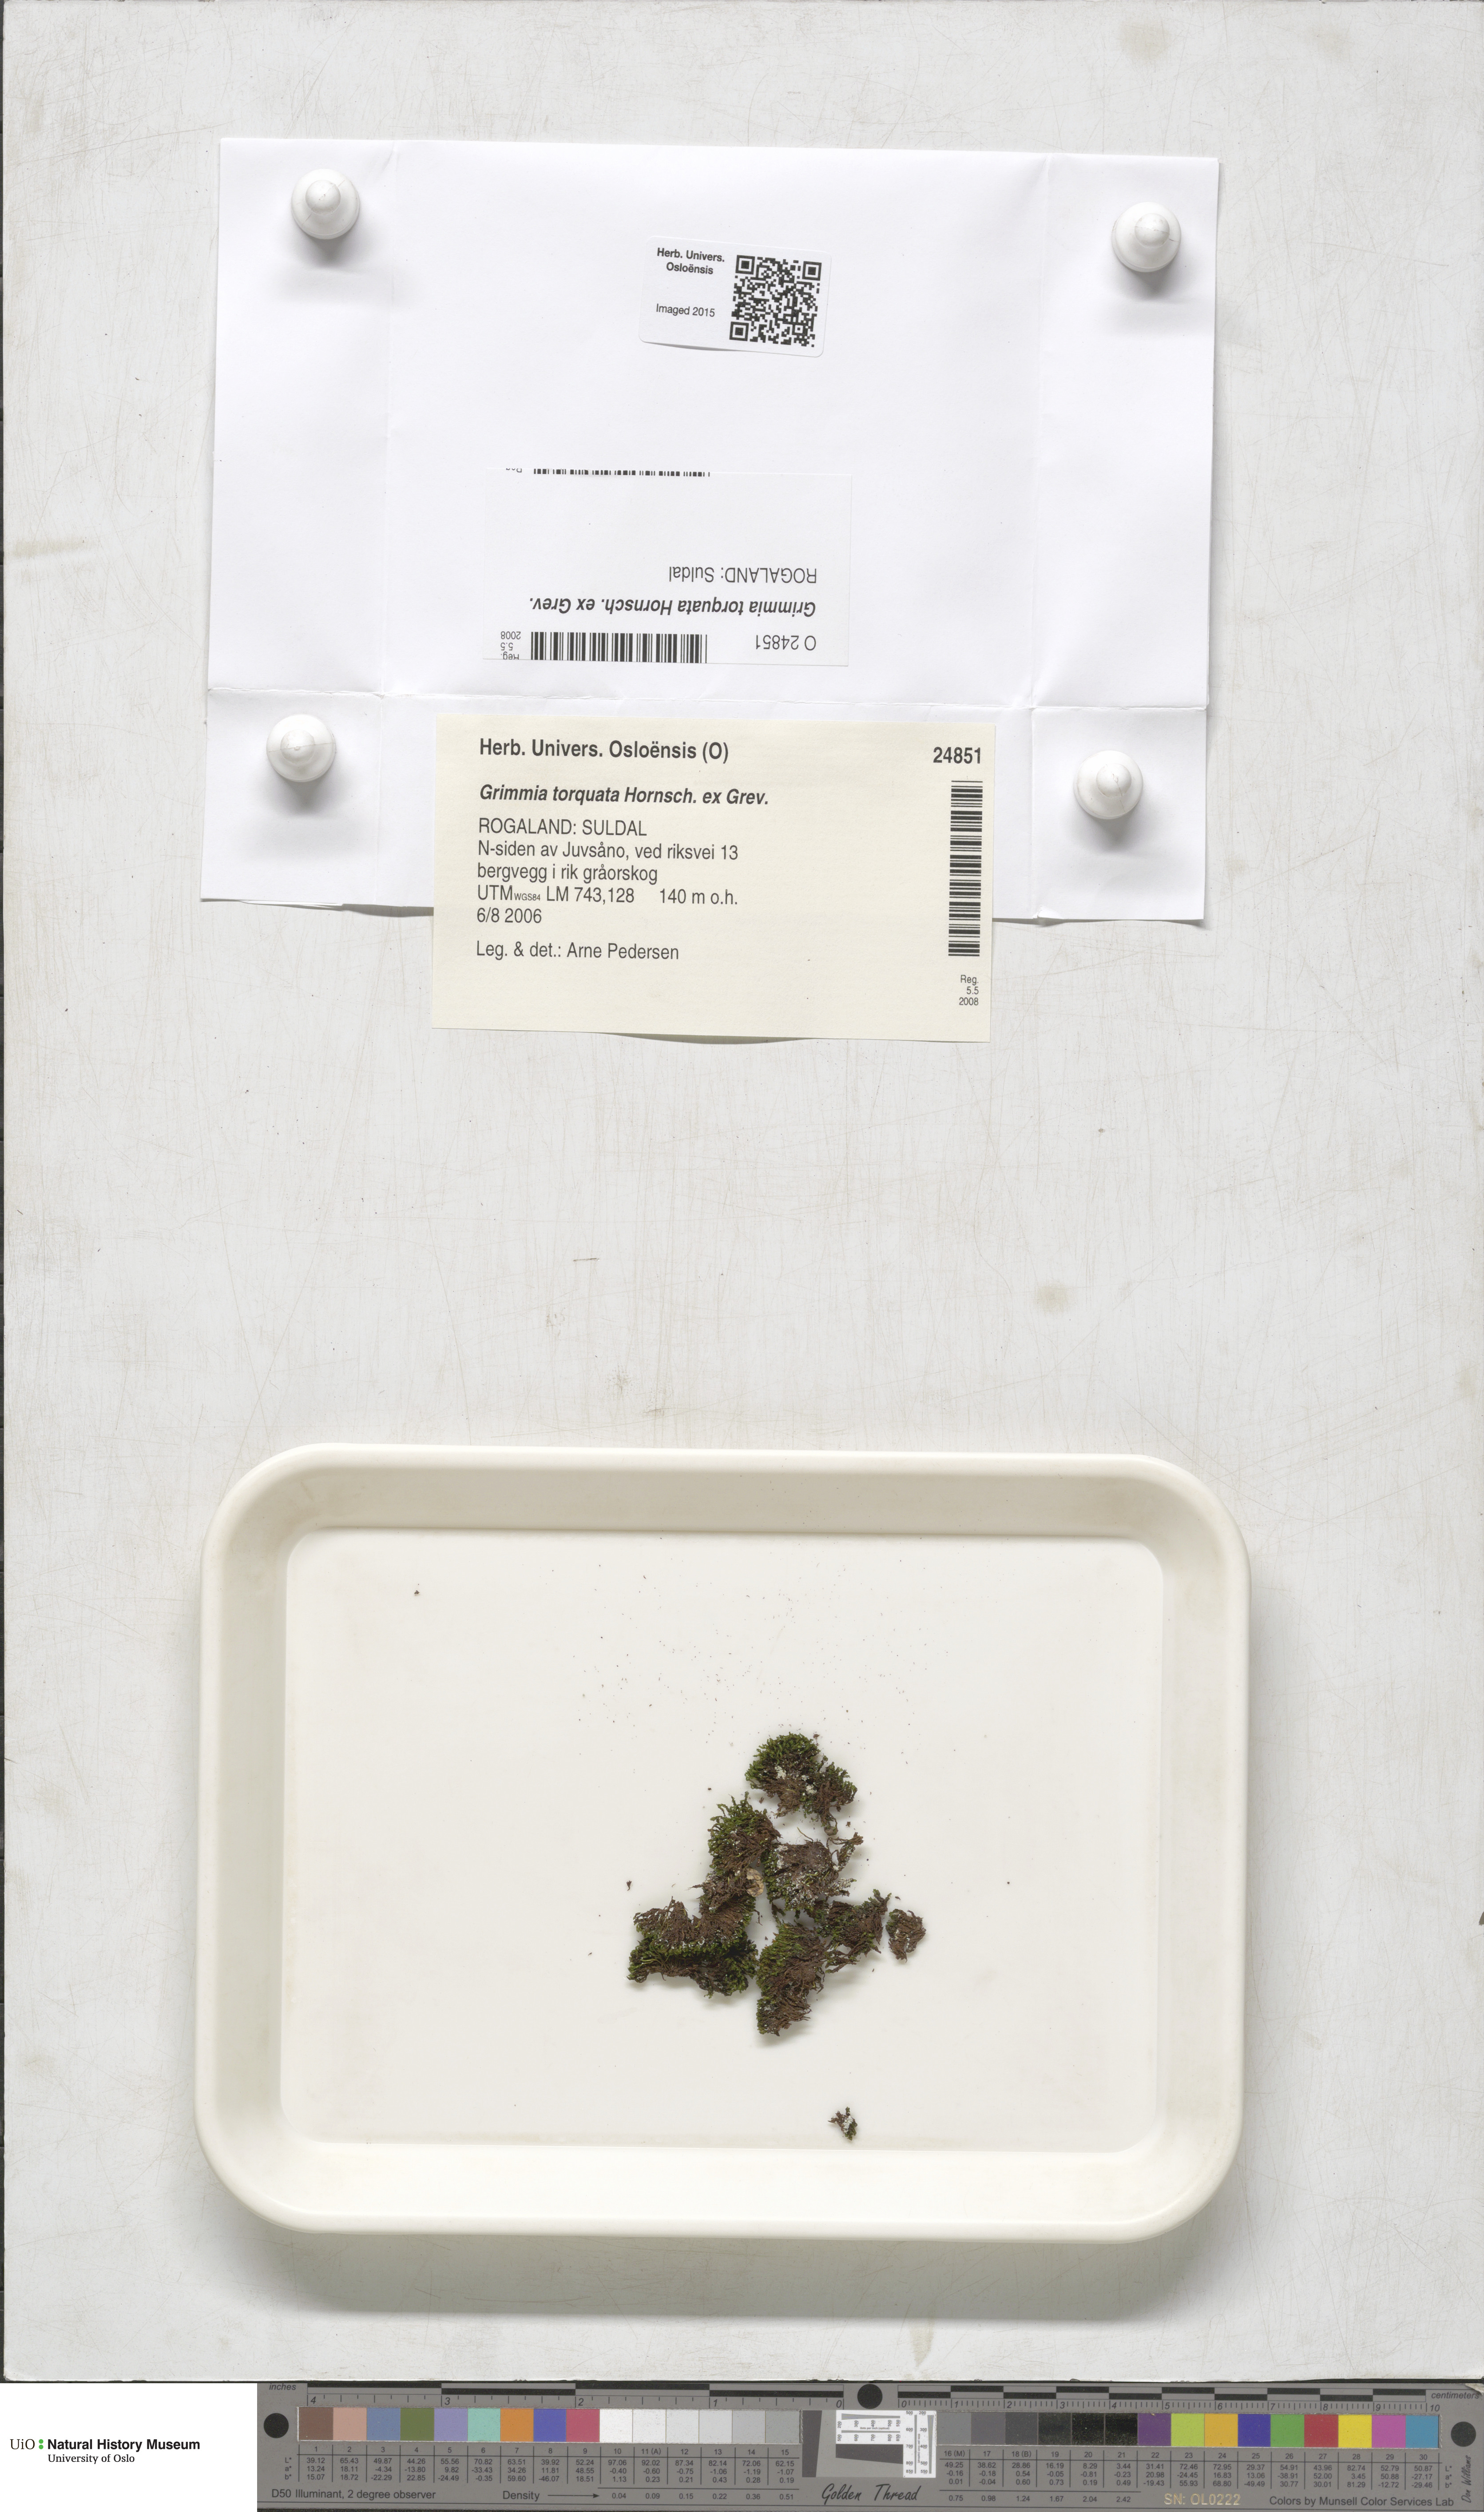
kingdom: Plantae
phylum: Bryophyta
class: Bryopsida
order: Grimmiales
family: Grimmiaceae
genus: Grimmia
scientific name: Grimmia torquata
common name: Twisted grimmia
